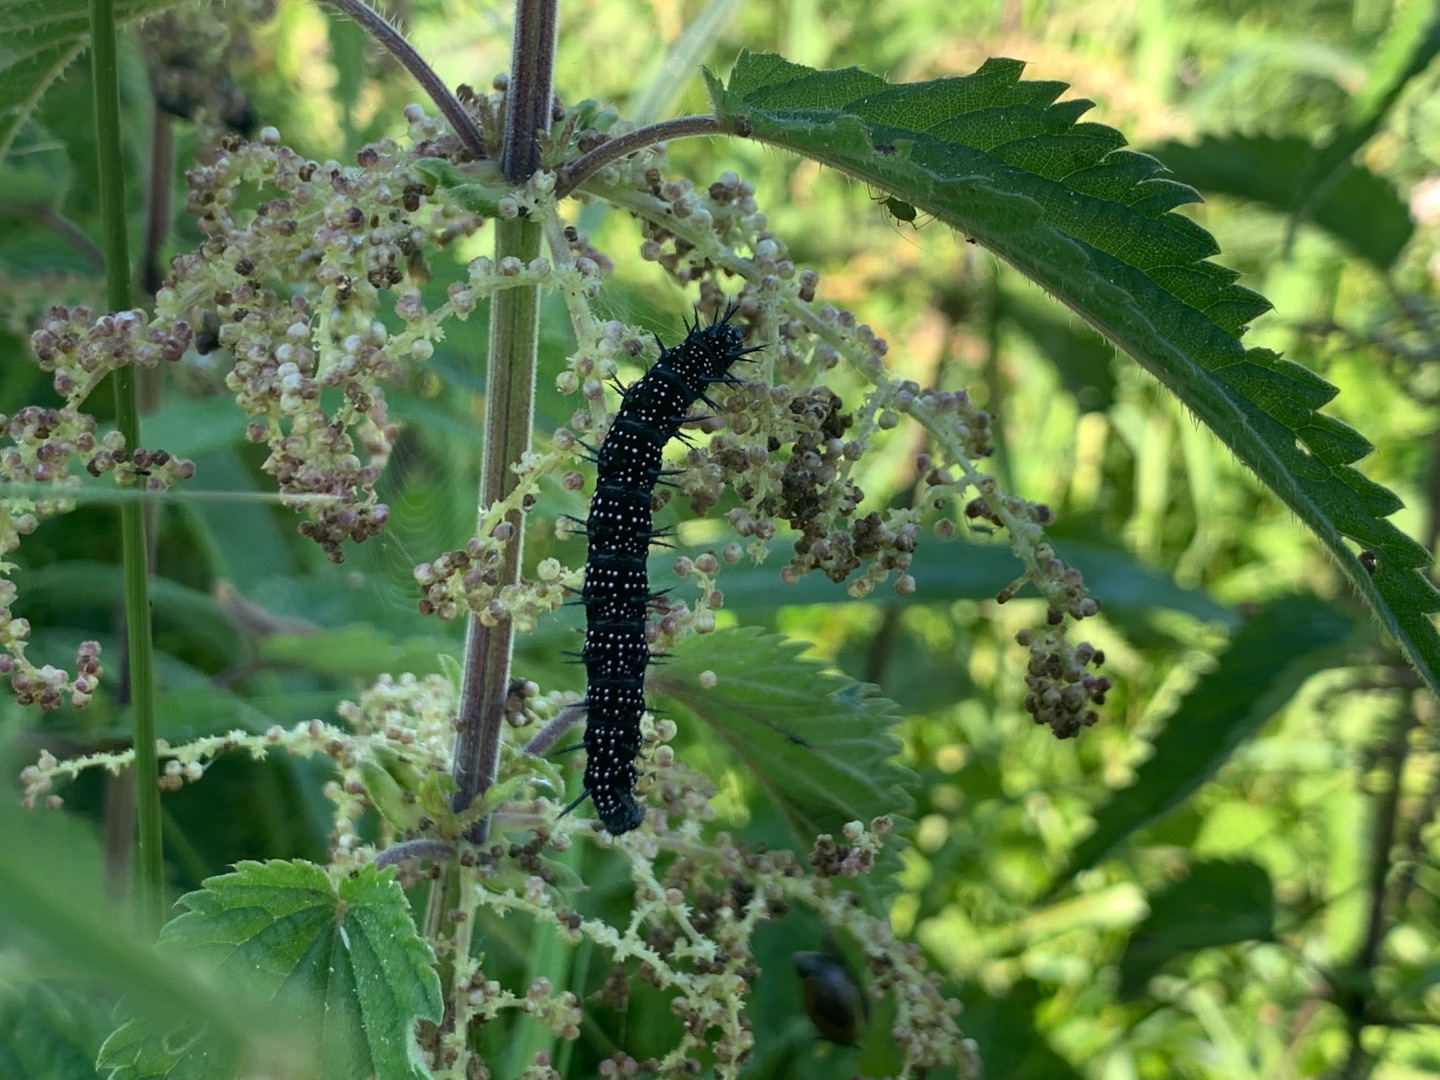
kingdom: Animalia
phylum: Arthropoda
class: Insecta
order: Lepidoptera
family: Nymphalidae
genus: Aglais
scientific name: Aglais io
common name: Dagpåfugleøje
